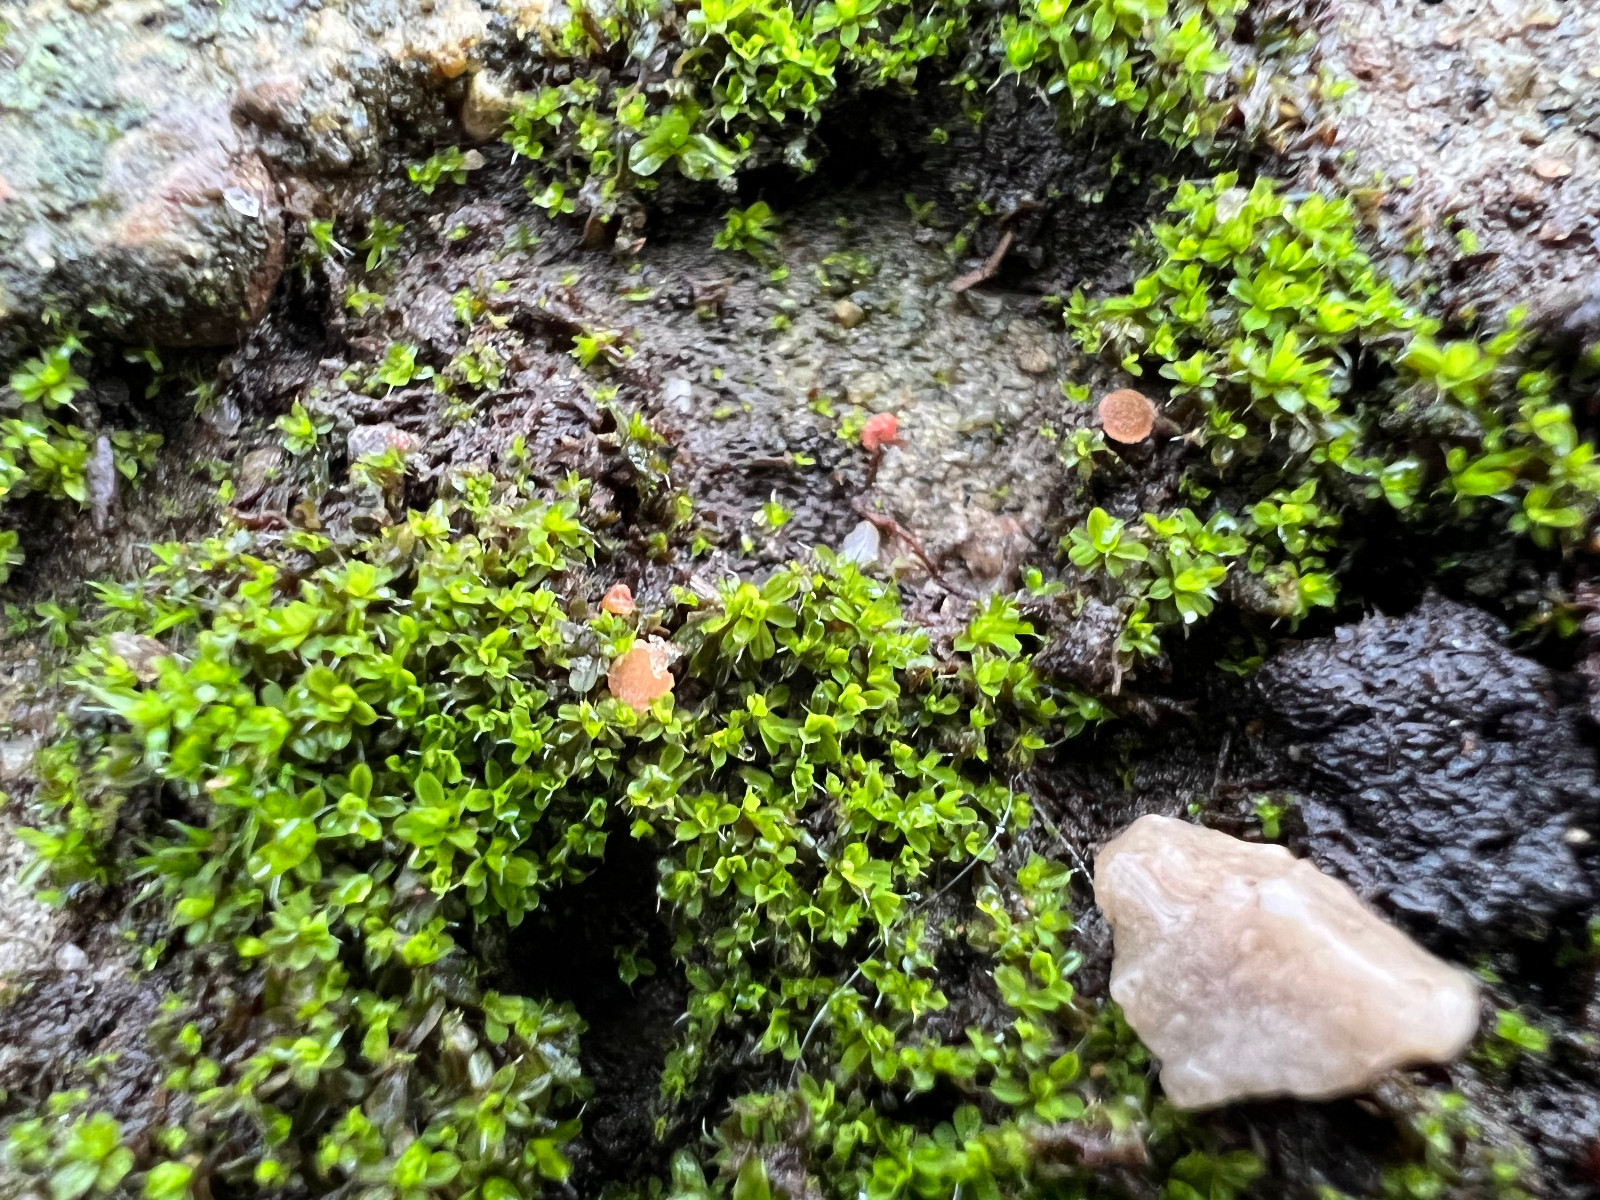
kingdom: Fungi
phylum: Ascomycota
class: Pezizomycetes
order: Pezizales
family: Pyronemataceae
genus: Octospora
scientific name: Octospora neerlandica
